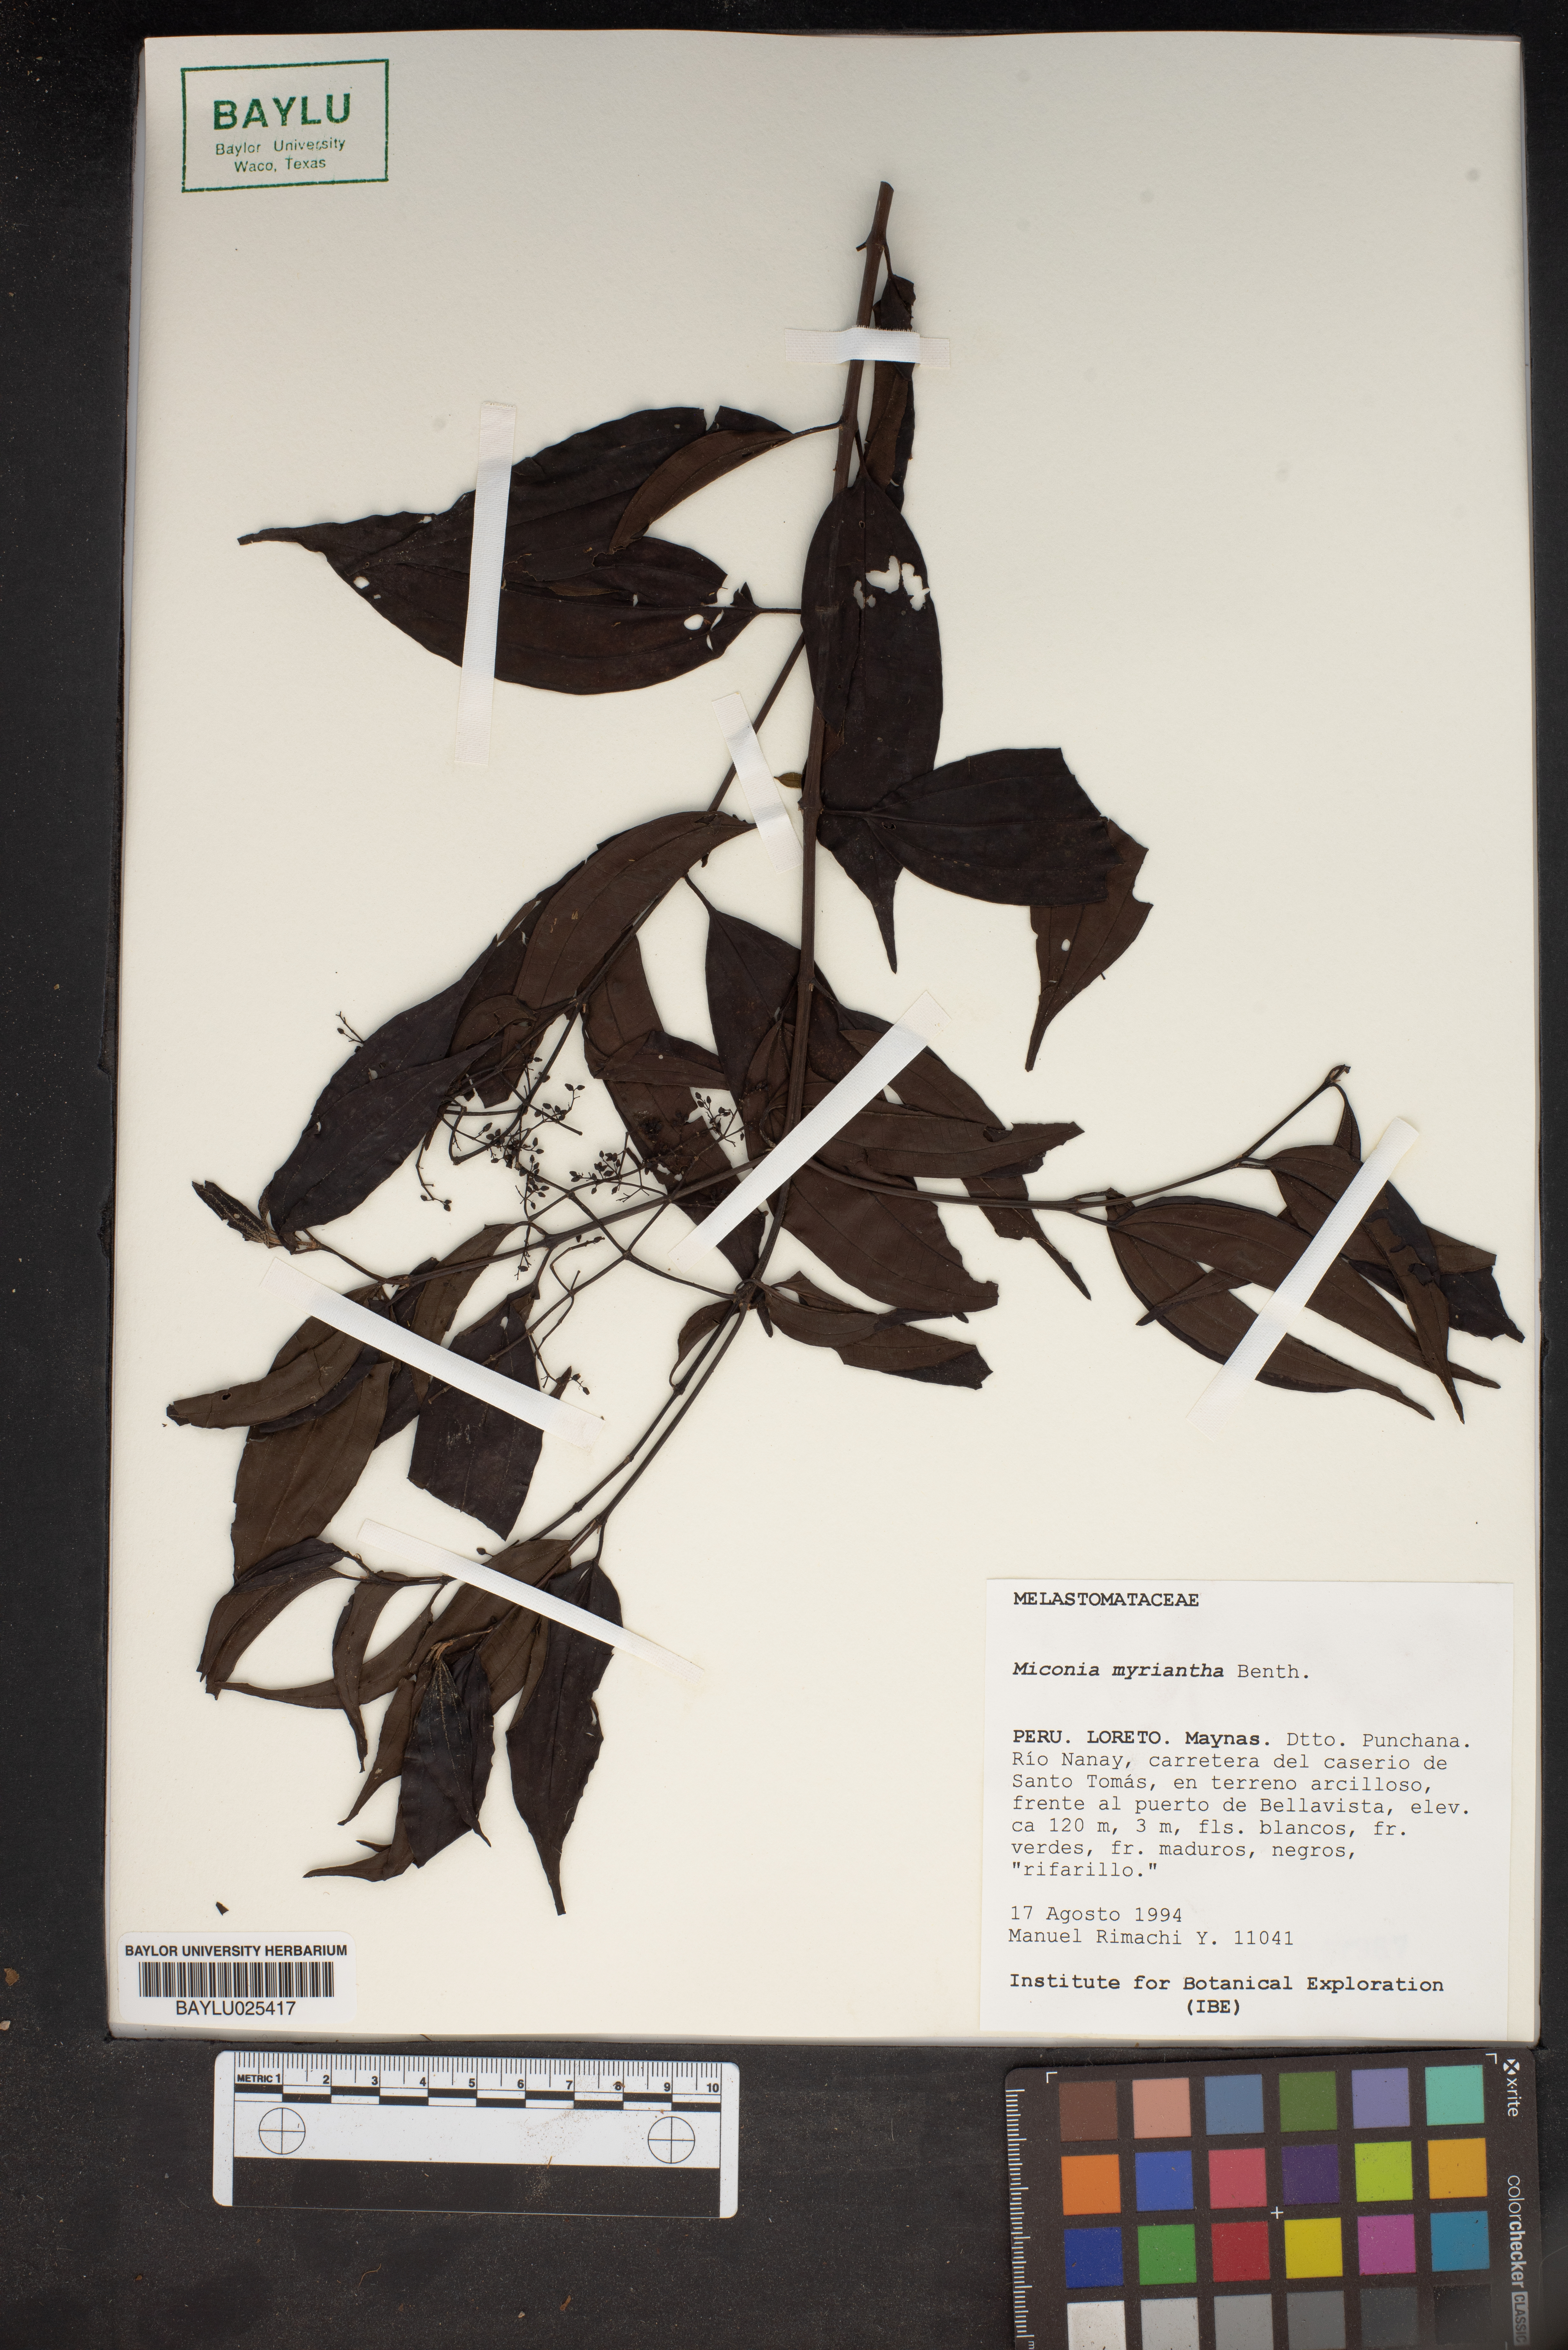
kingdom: Plantae
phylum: Tracheophyta
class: Magnoliopsida
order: Myrtales
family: Melastomataceae
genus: Miconia
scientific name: Miconia myriantha
